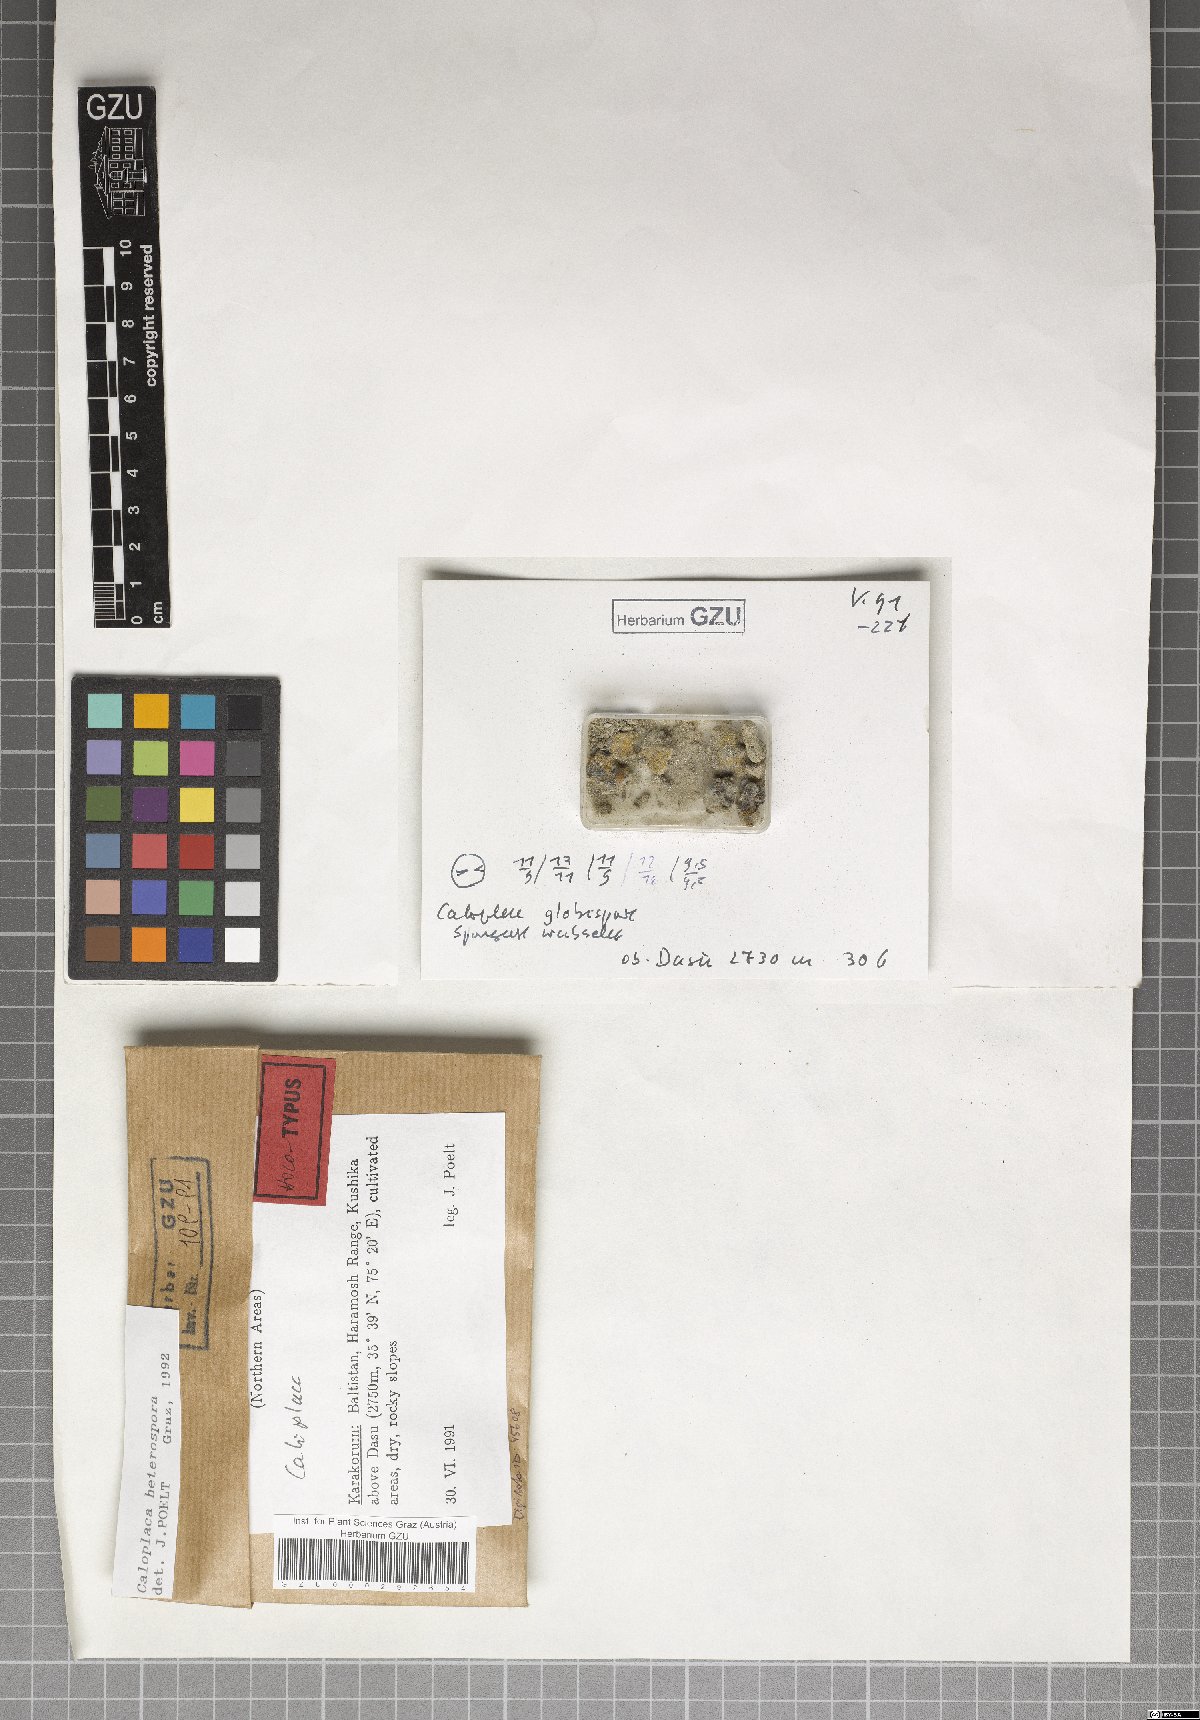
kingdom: Fungi
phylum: Ascomycota
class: Lecanoromycetes
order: Teloschistales
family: Teloschistaceae
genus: Caloplaca
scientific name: Caloplaca
